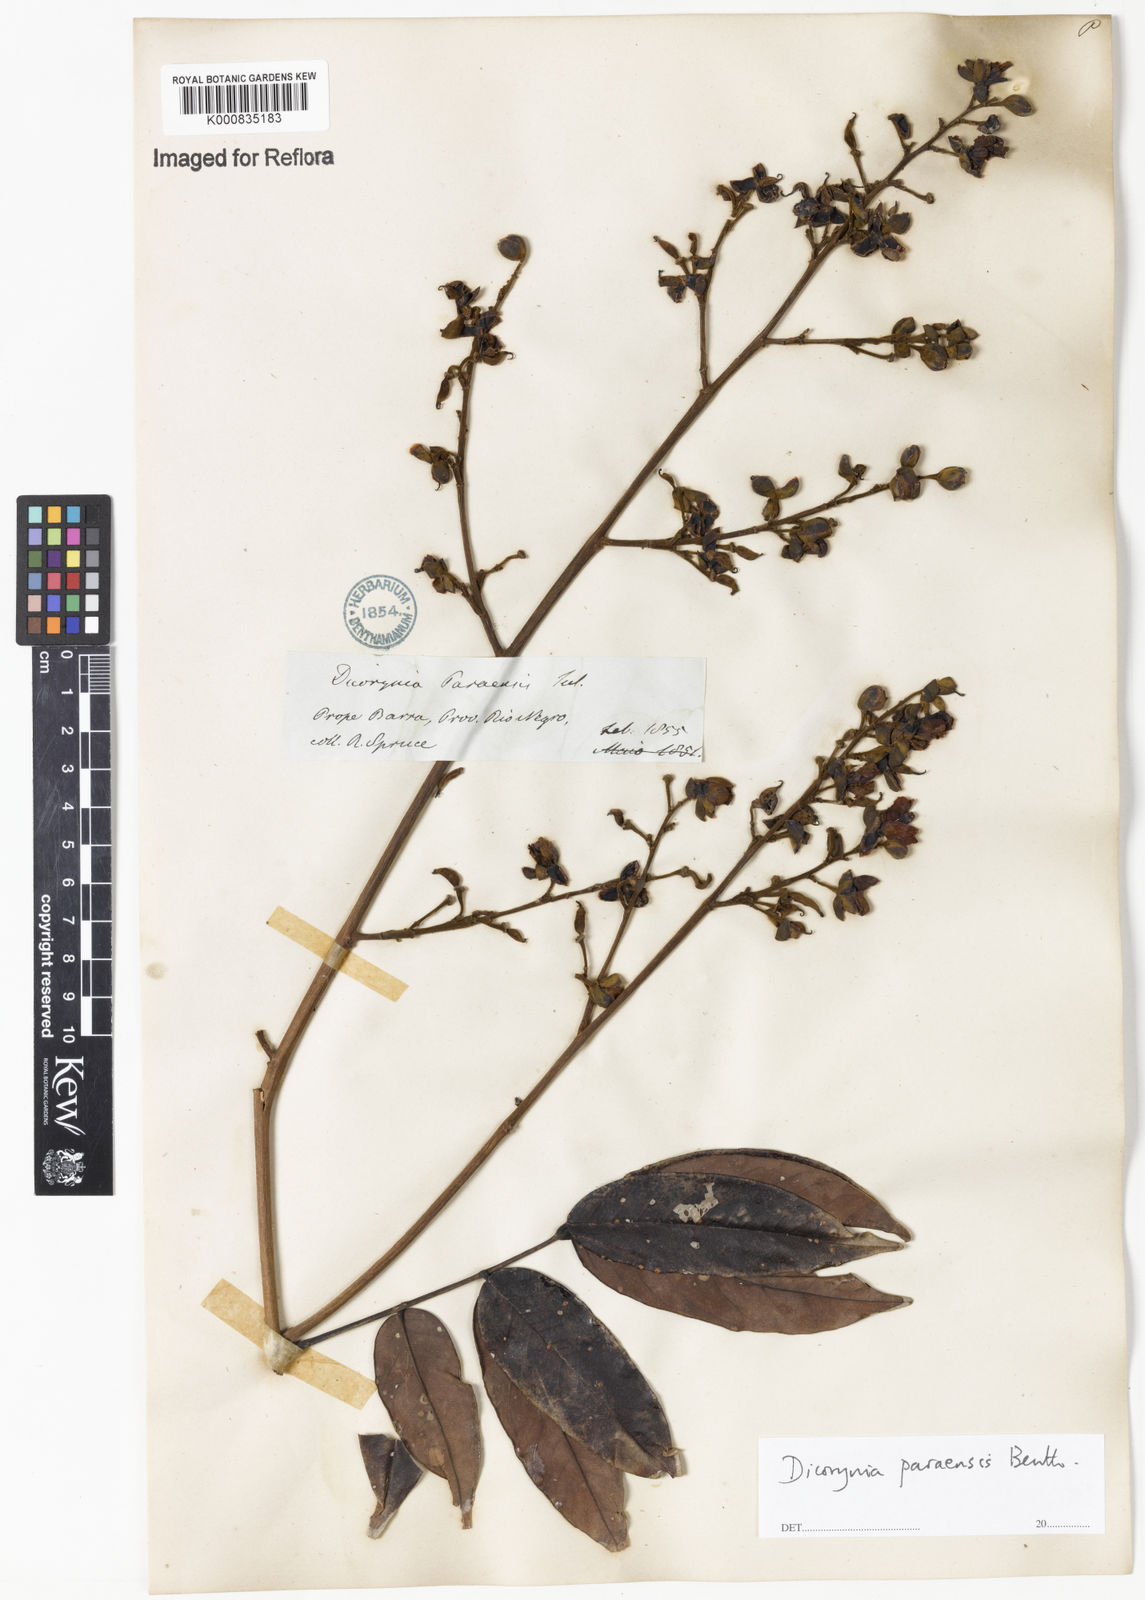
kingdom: Plantae
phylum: Tracheophyta
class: Magnoliopsida
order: Fabales
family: Fabaceae
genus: Dicorynia
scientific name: Dicorynia paraensis
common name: Angelique
